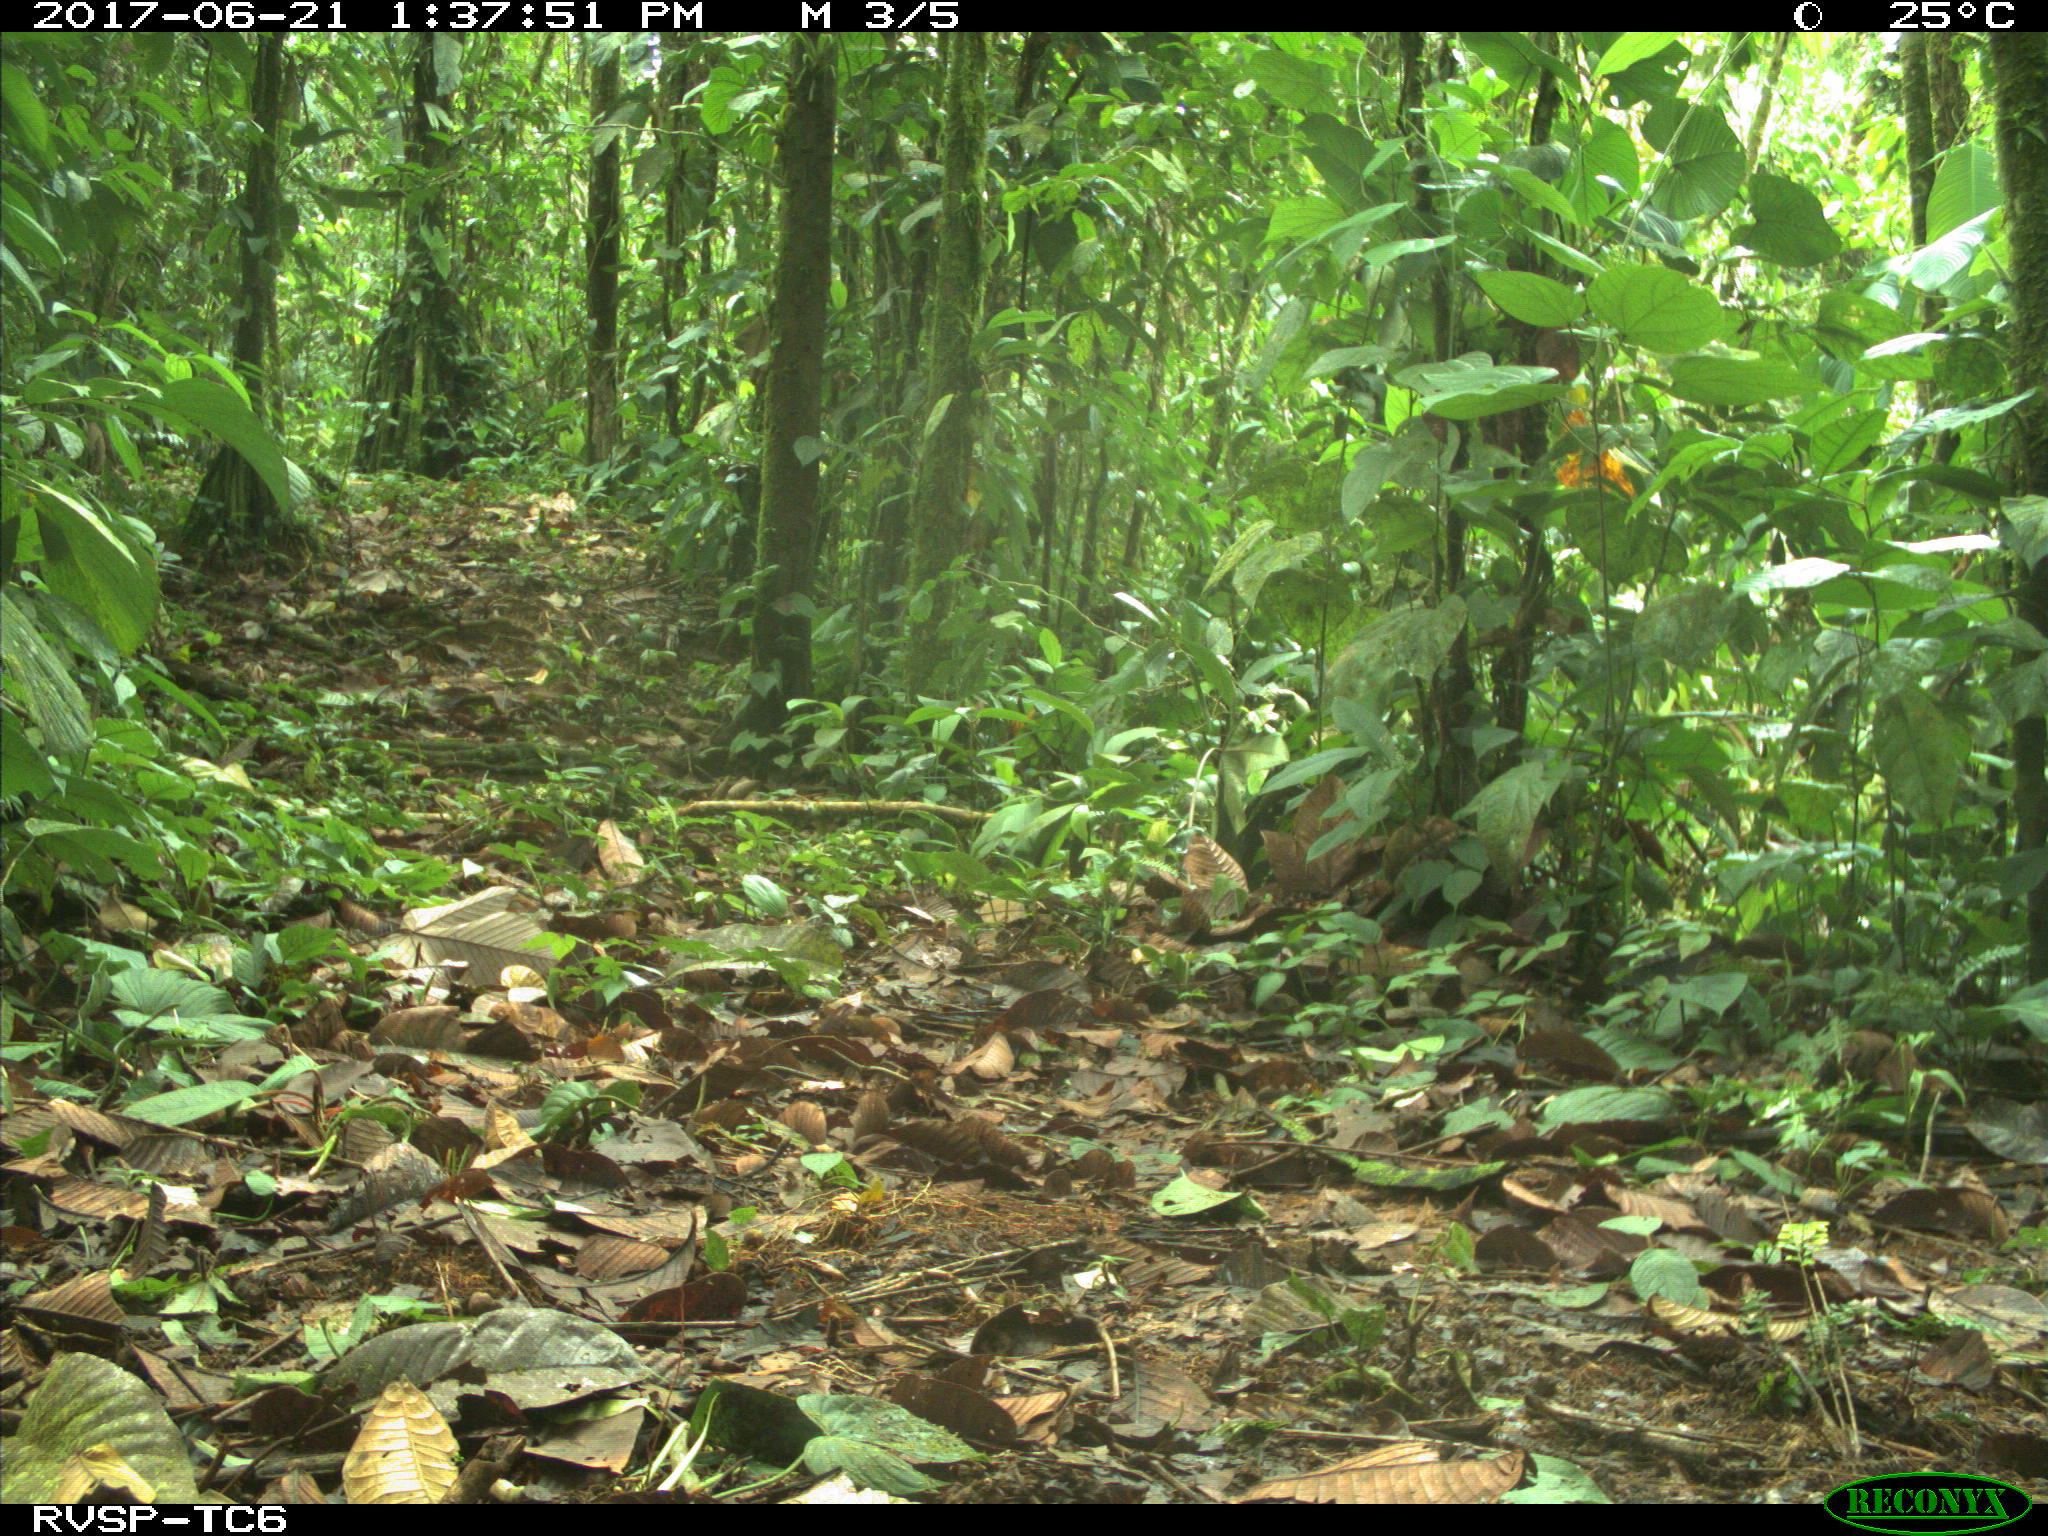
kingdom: Animalia
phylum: Chordata
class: Mammalia
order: Rodentia
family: Dasyproctidae
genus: Dasyprocta
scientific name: Dasyprocta punctata
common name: Central american agouti
